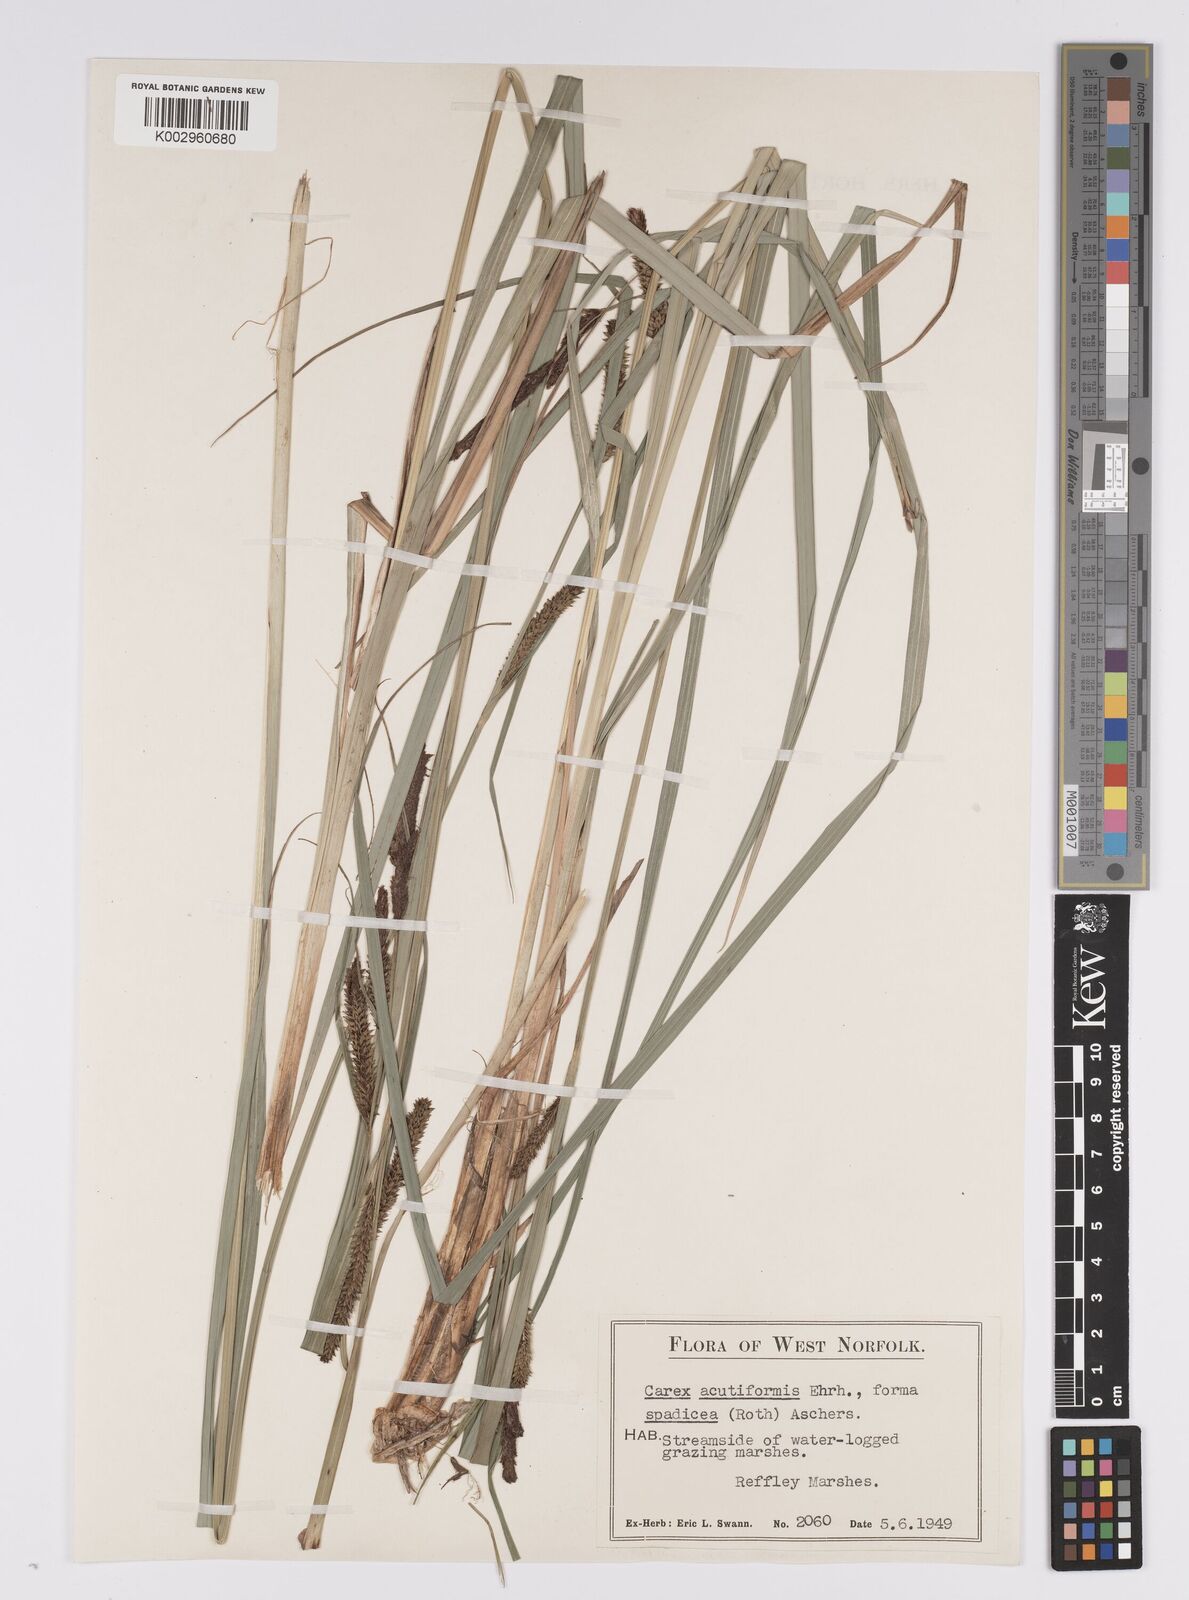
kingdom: Plantae
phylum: Tracheophyta
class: Liliopsida
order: Poales
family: Cyperaceae
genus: Carex
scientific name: Carex acutiformis
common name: Lesser pond-sedge
